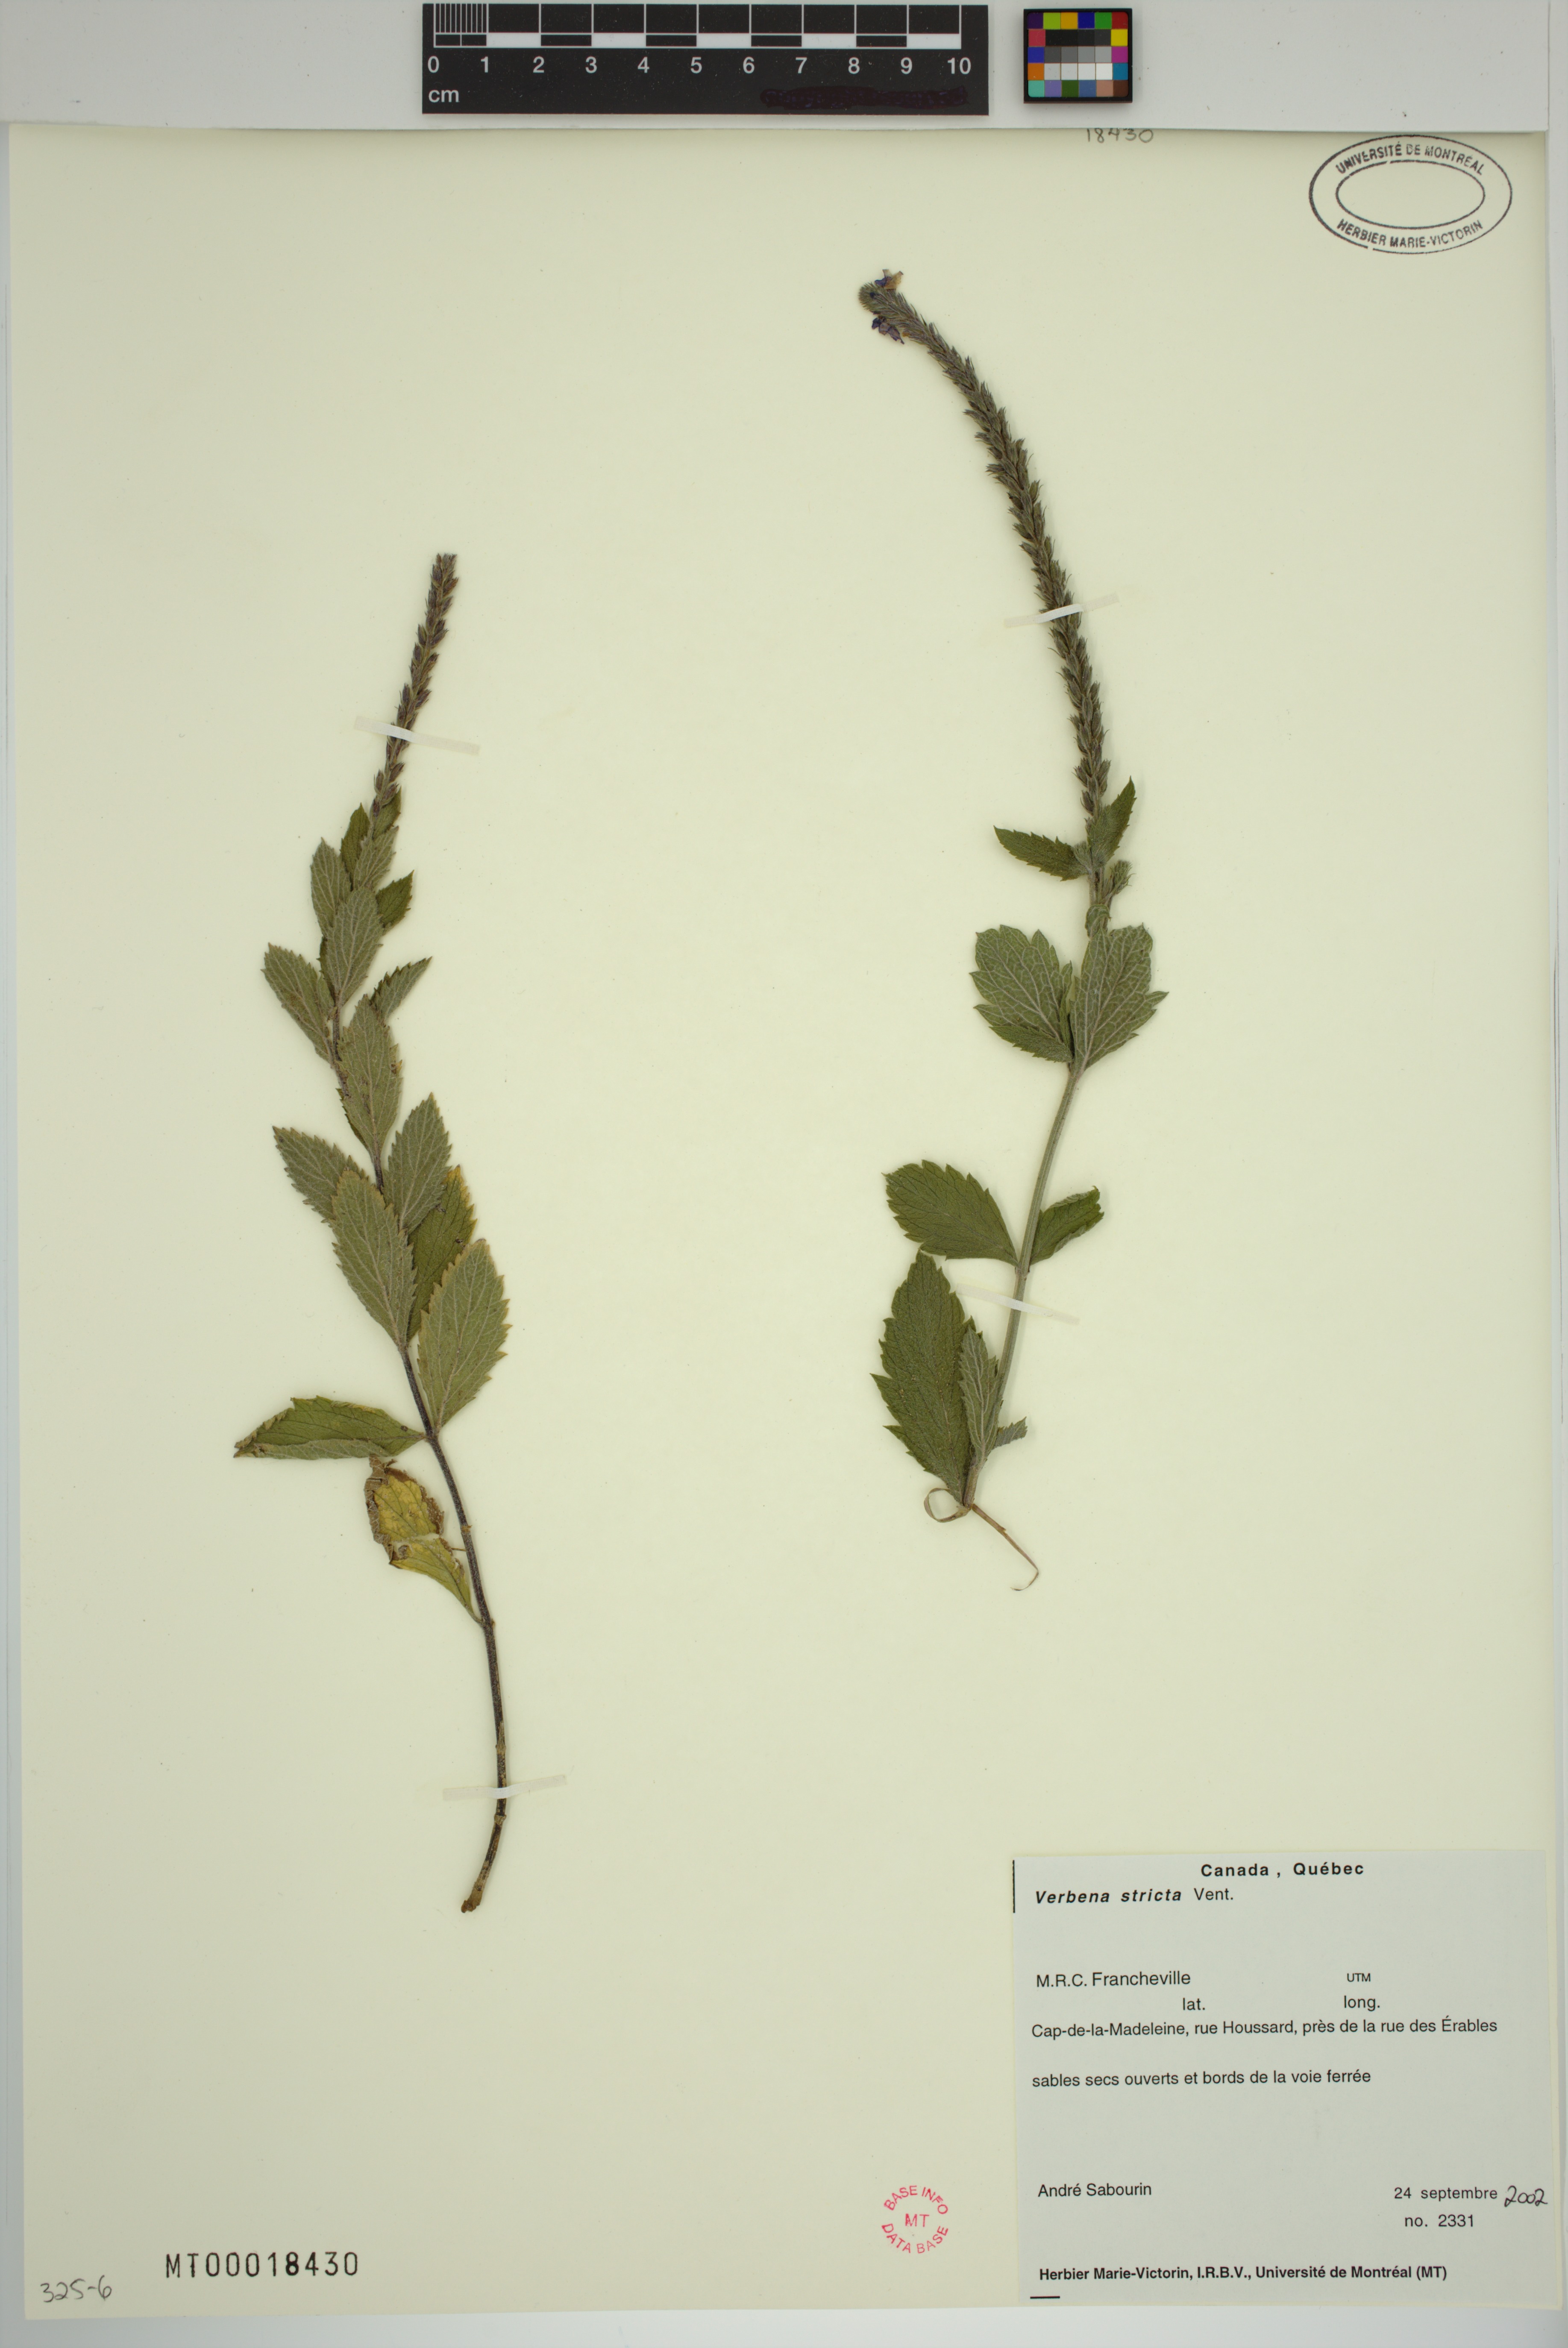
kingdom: Plantae
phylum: Tracheophyta
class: Magnoliopsida
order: Lamiales
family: Verbenaceae
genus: Verbena
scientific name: Verbena stricta
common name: Hoary vervain
